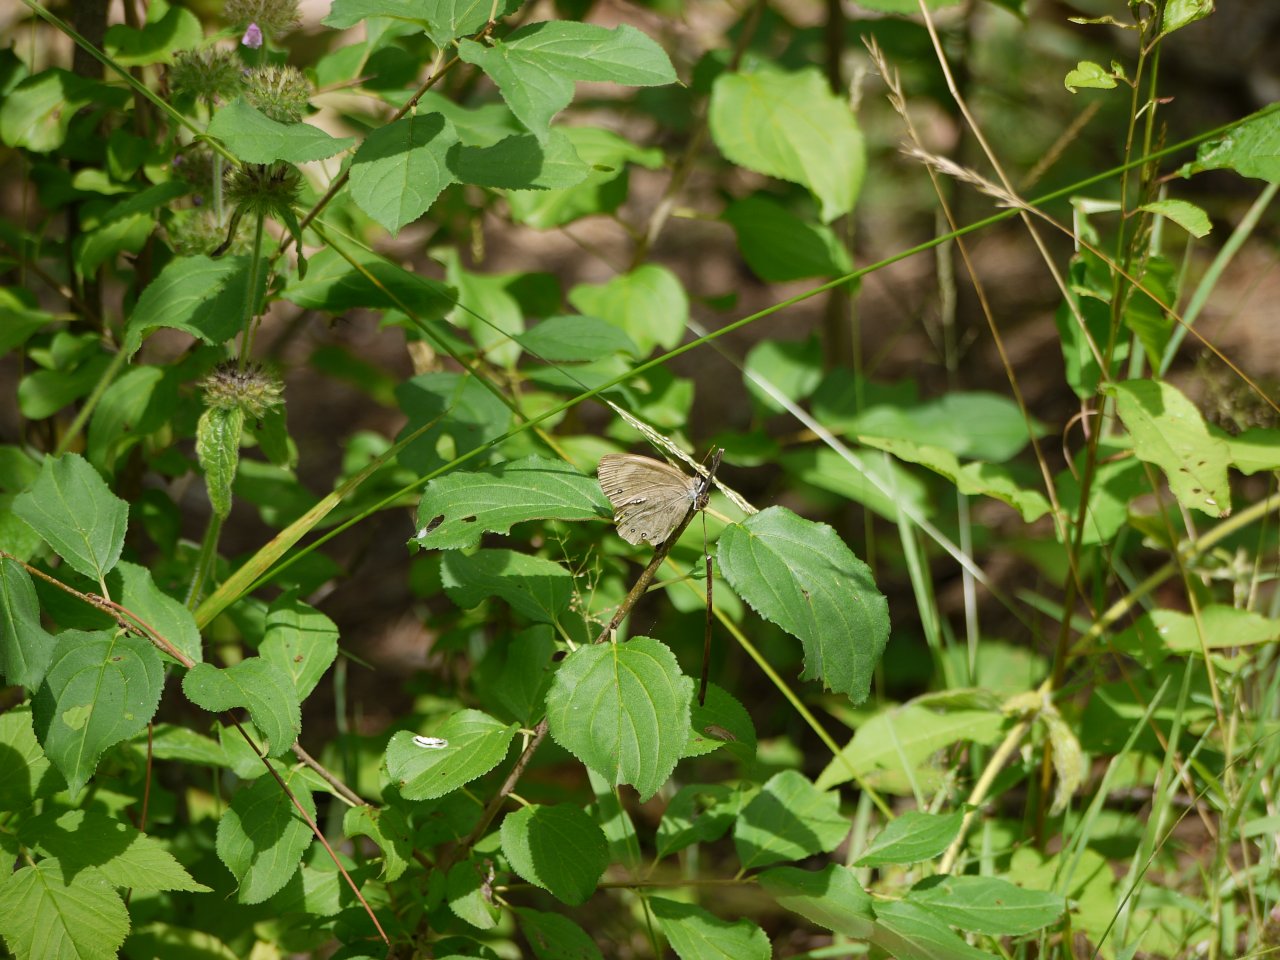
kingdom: Animalia
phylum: Arthropoda
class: Insecta
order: Lepidoptera
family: Nymphalidae
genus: Lethe
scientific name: Lethe eurydice
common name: Appalachian Eyed Brown
